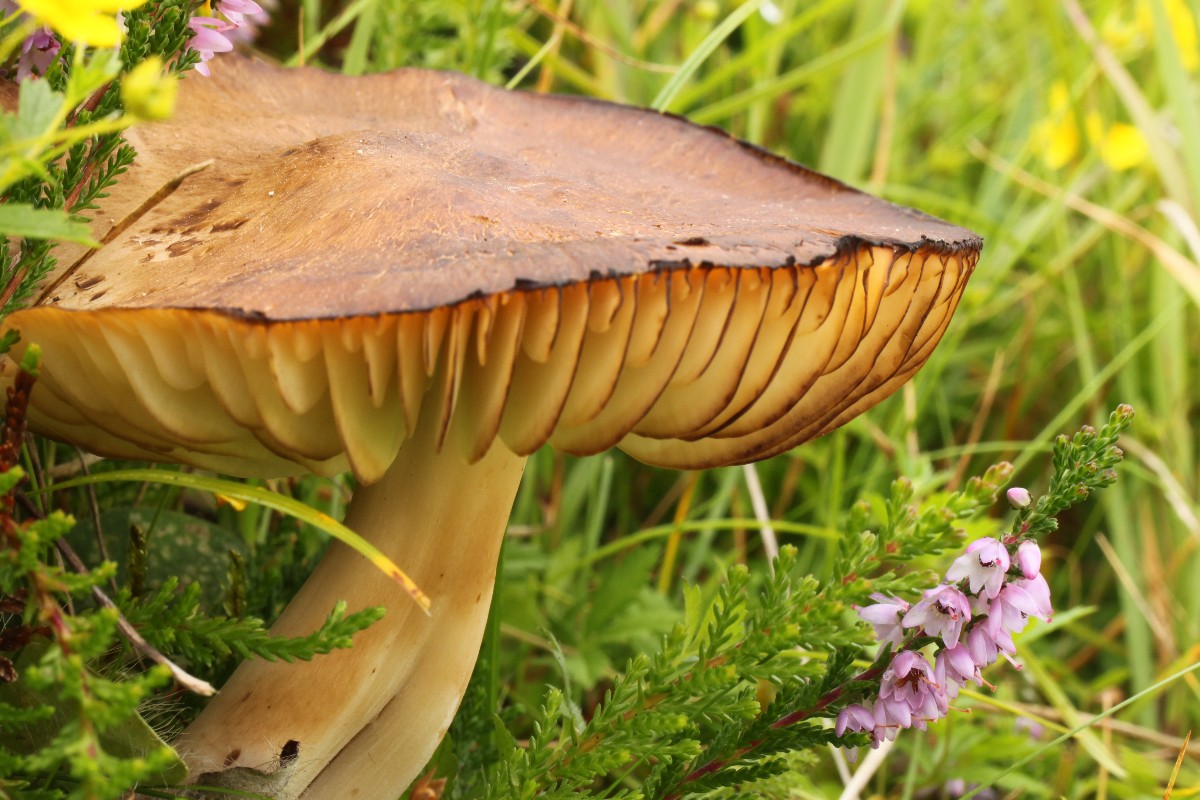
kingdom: Fungi
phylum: Basidiomycota
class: Agaricomycetes
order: Agaricales
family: Hygrophoraceae
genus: Hygrocybe
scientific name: Hygrocybe ingrata
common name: Jensens vokshat
